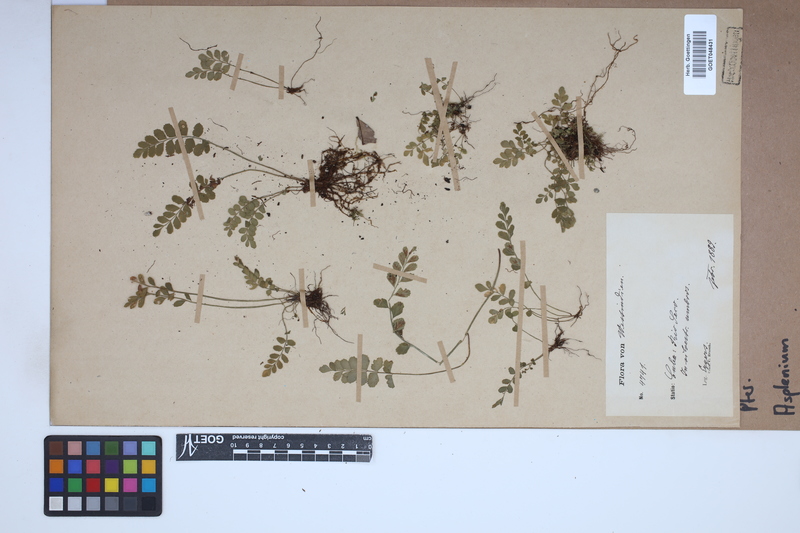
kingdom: Plantae
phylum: Tracheophyta
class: Polypodiopsida
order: Polypodiales
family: Aspleniaceae
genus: Asplenium
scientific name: Asplenium
